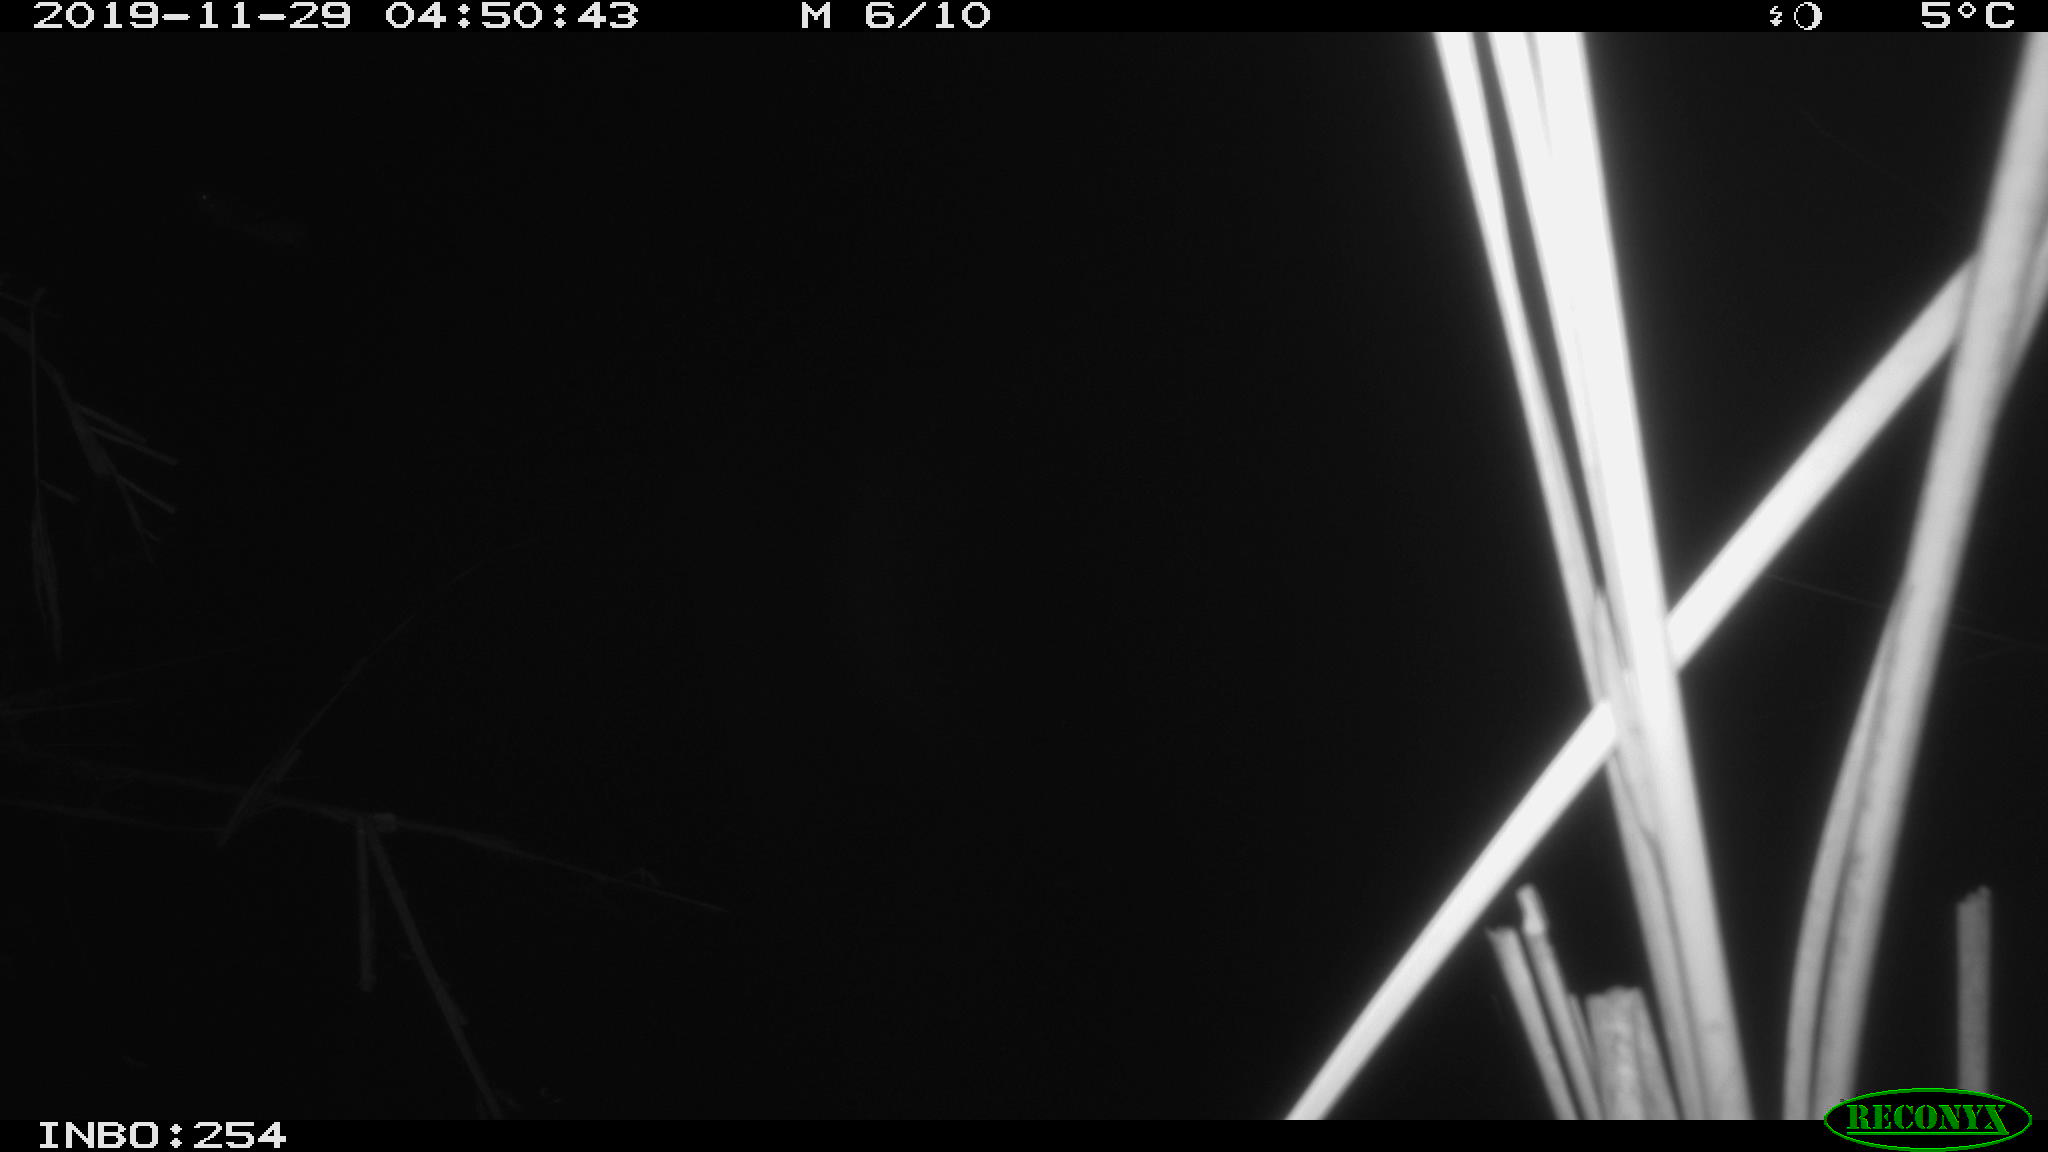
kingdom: Animalia
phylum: Chordata
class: Mammalia
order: Rodentia
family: Muridae
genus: Rattus
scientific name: Rattus norvegicus
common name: Brown rat
